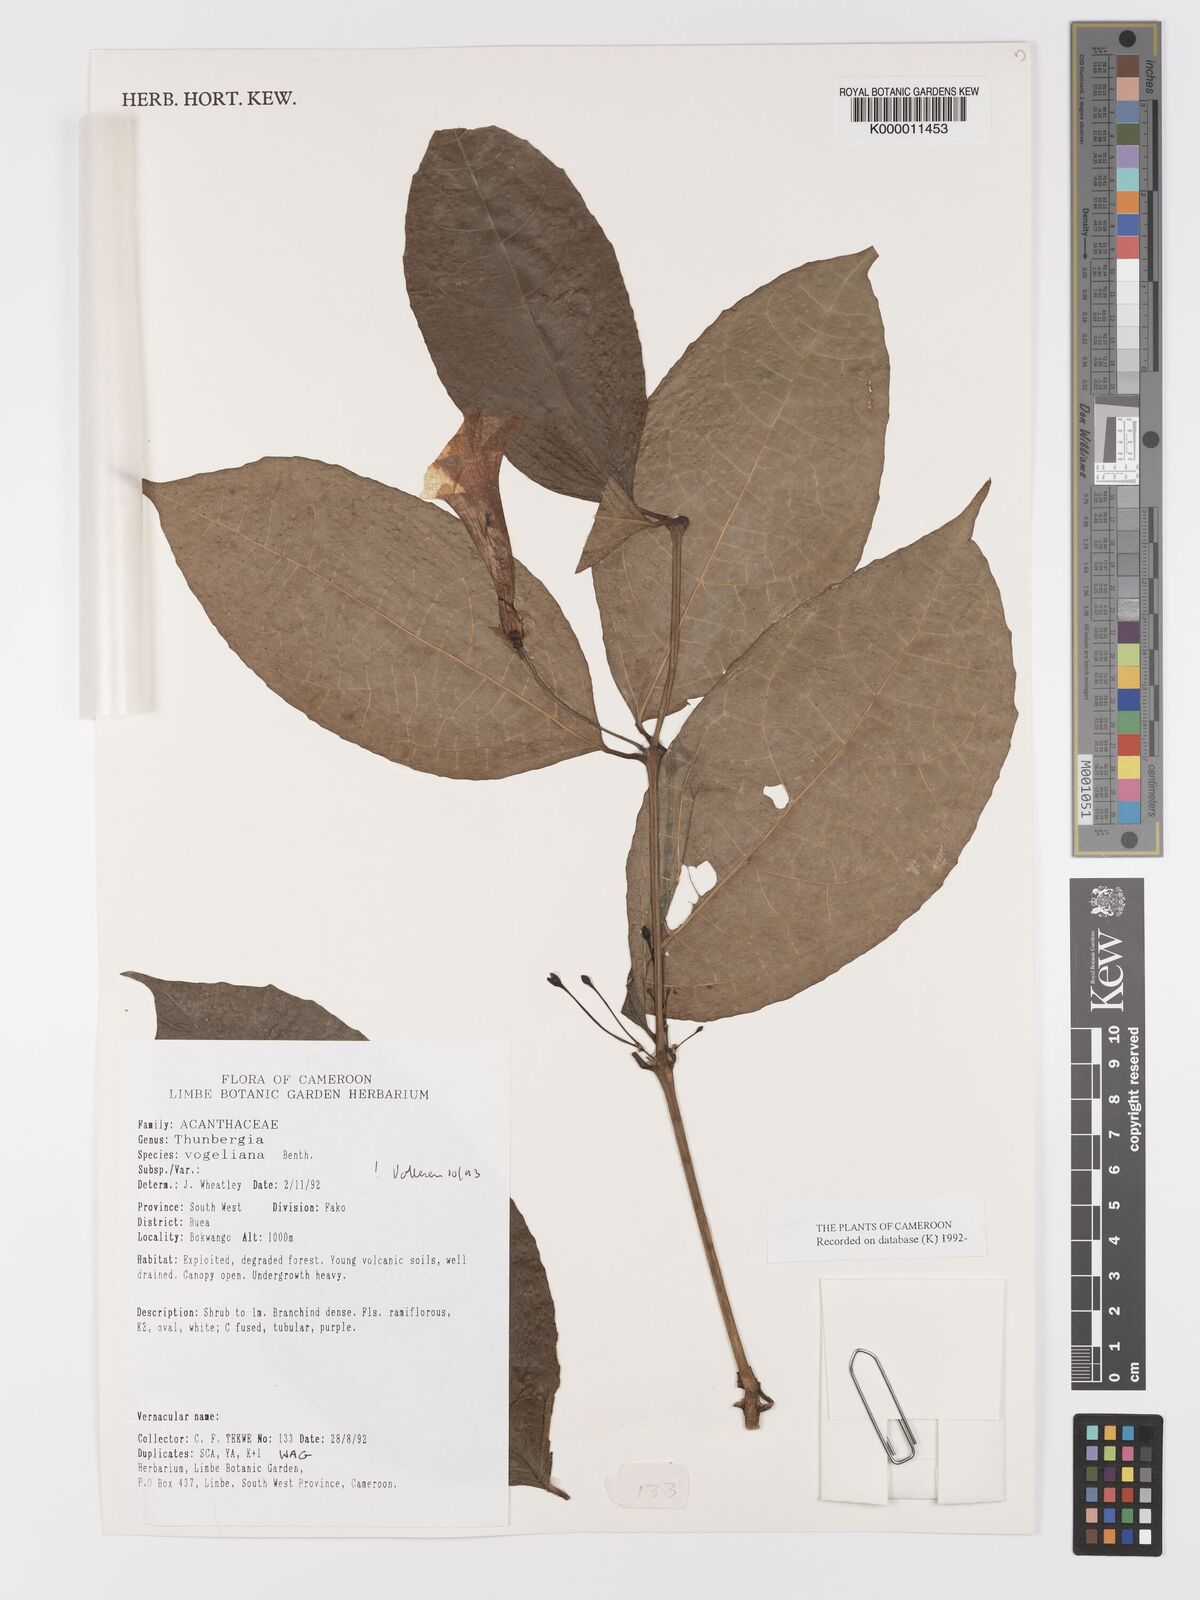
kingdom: Plantae
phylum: Tracheophyta
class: Magnoliopsida
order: Lamiales
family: Acanthaceae
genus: Thunbergia
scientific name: Thunbergia vogeliana
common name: Acanthaceae
